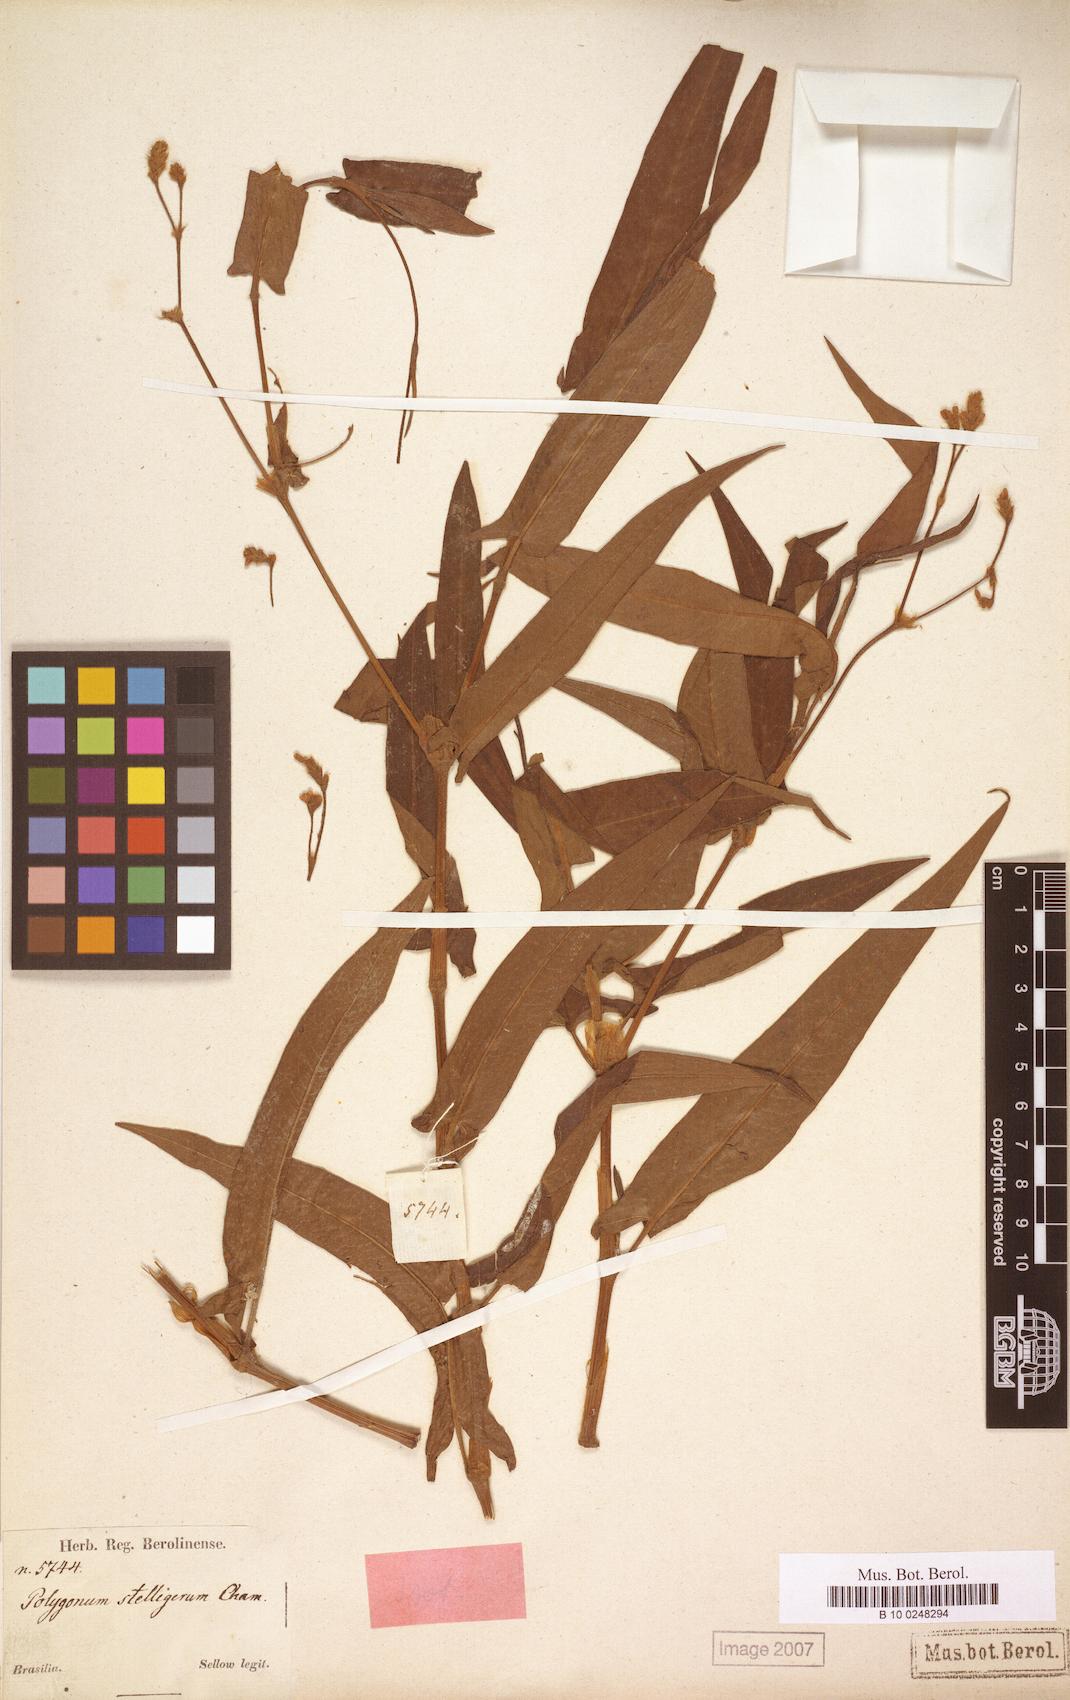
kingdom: Plantae
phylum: Tracheophyta
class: Magnoliopsida
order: Caryophyllales
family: Polygonaceae
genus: Persicaria
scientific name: Persicaria stelligera
